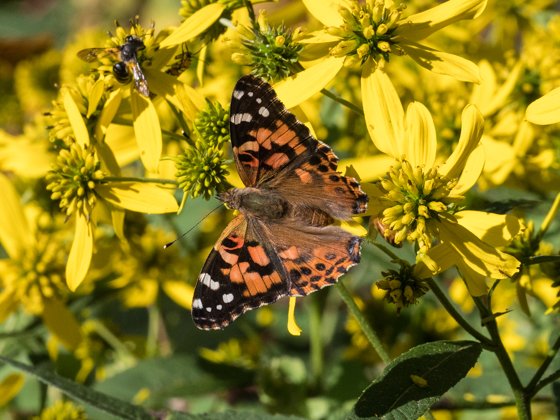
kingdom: Animalia
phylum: Arthropoda
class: Insecta
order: Lepidoptera
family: Nymphalidae
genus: Vanessa
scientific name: Vanessa cardui
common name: Painted Lady
